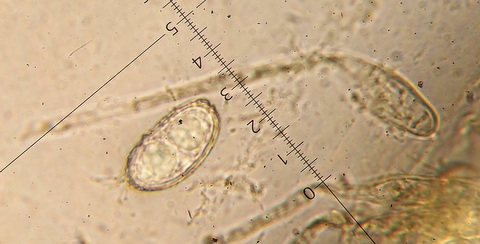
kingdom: Fungi
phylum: Ascomycota
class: Pezizomycetes
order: Pezizales
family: Pyronemataceae
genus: Humaria
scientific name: Humaria hemisphaerica
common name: halvkugleformet børstebæger
